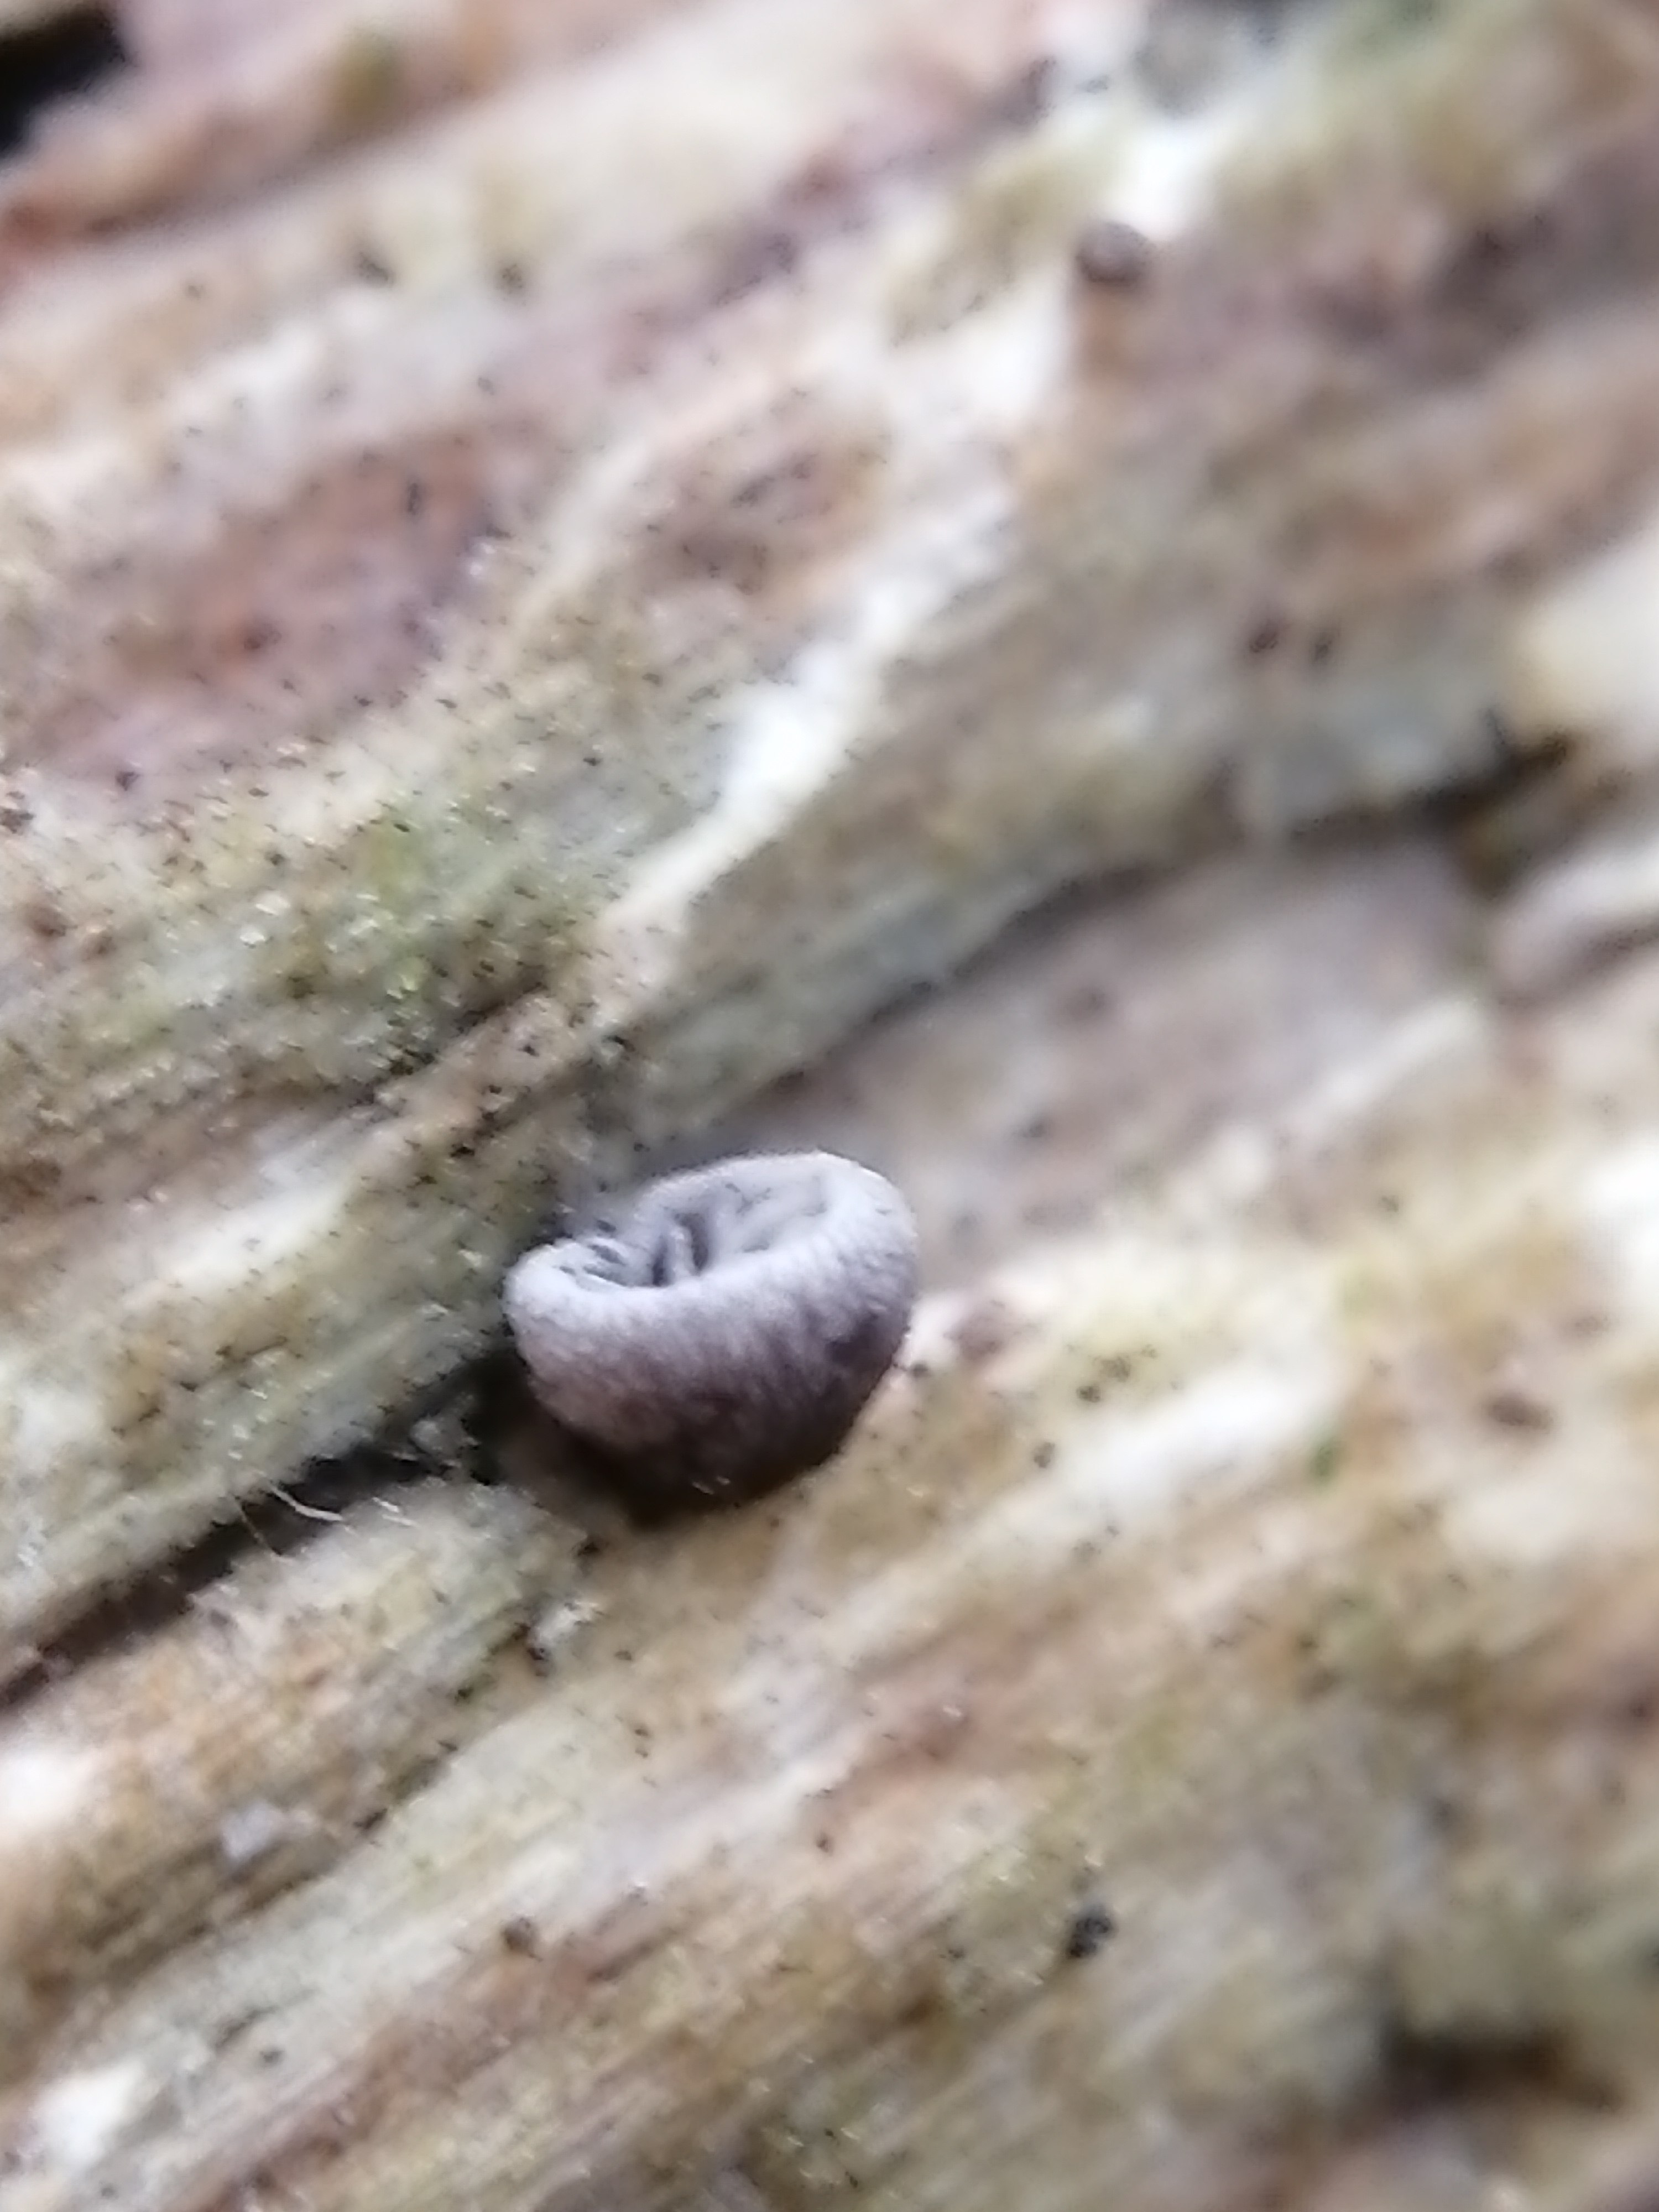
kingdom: Fungi
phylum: Basidiomycota
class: Agaricomycetes
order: Agaricales
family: Pleurotaceae
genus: Resupinatus
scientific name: Resupinatus
